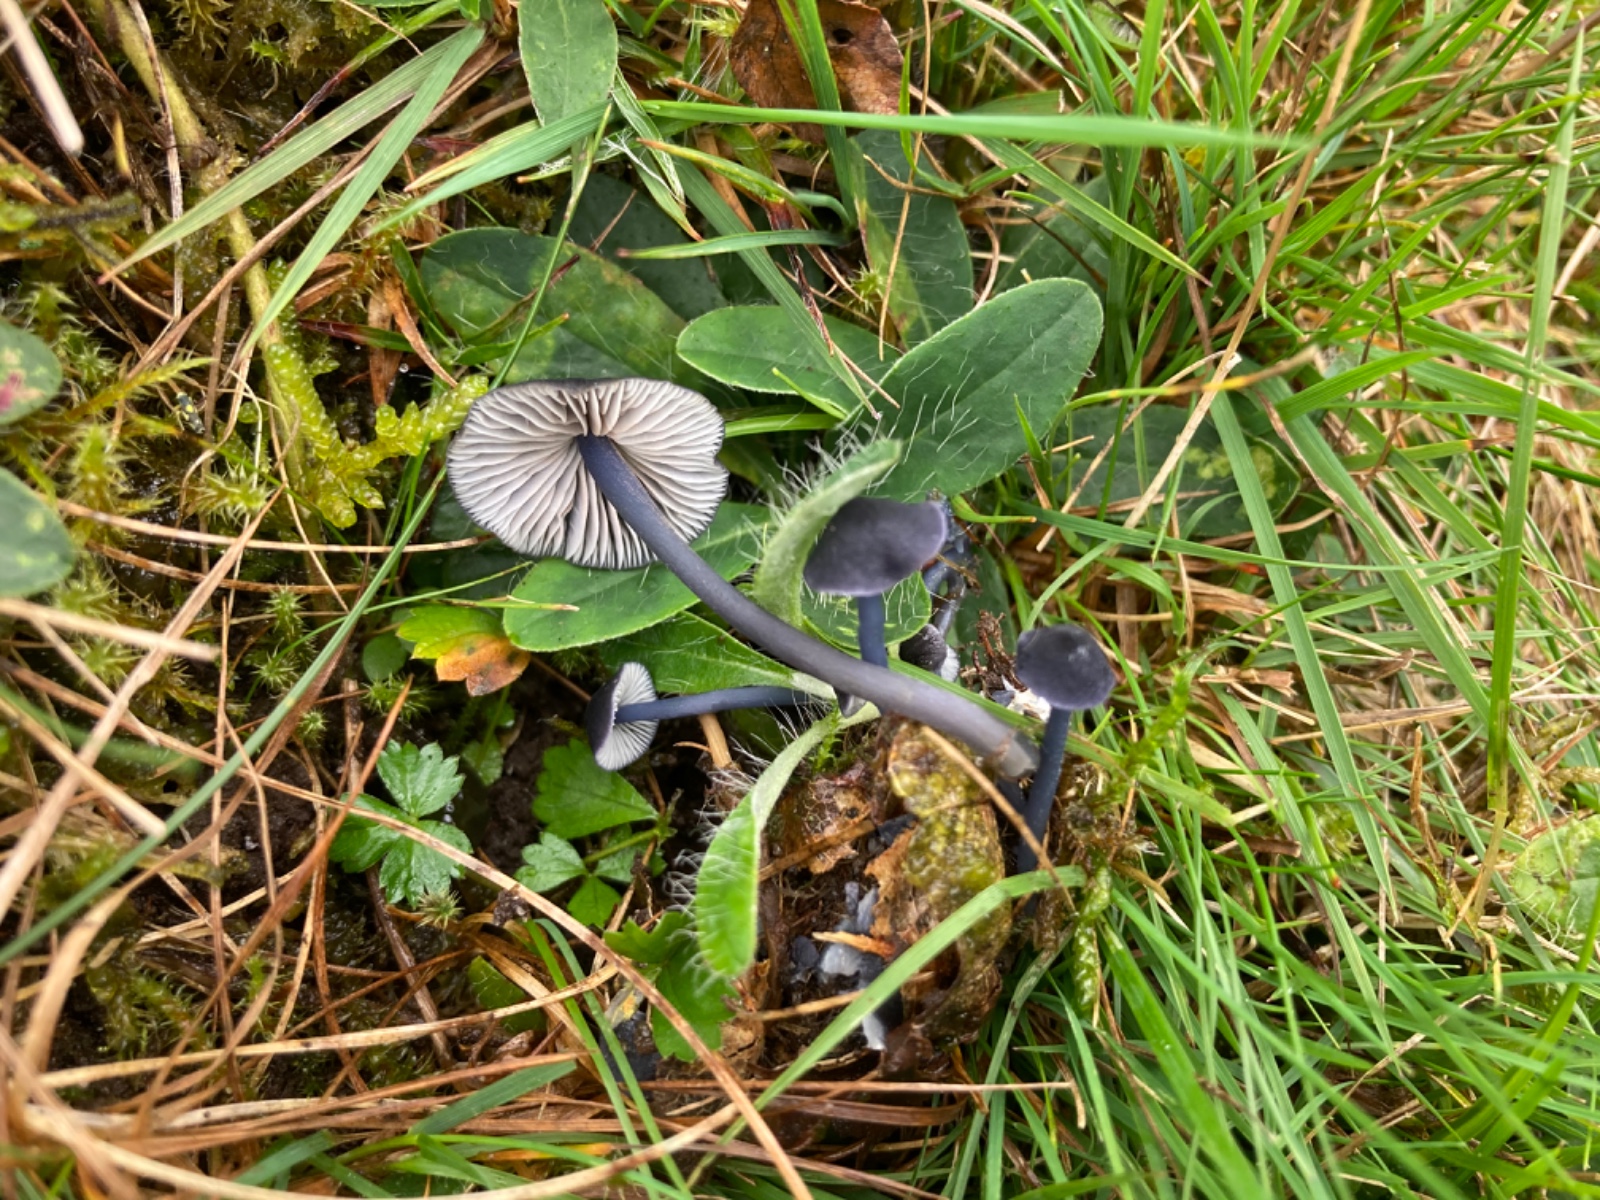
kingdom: Fungi
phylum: Basidiomycota
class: Agaricomycetes
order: Agaricales
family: Entolomataceae
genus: Entoloma
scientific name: Entoloma chalybeum
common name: blåbladet rødblad
